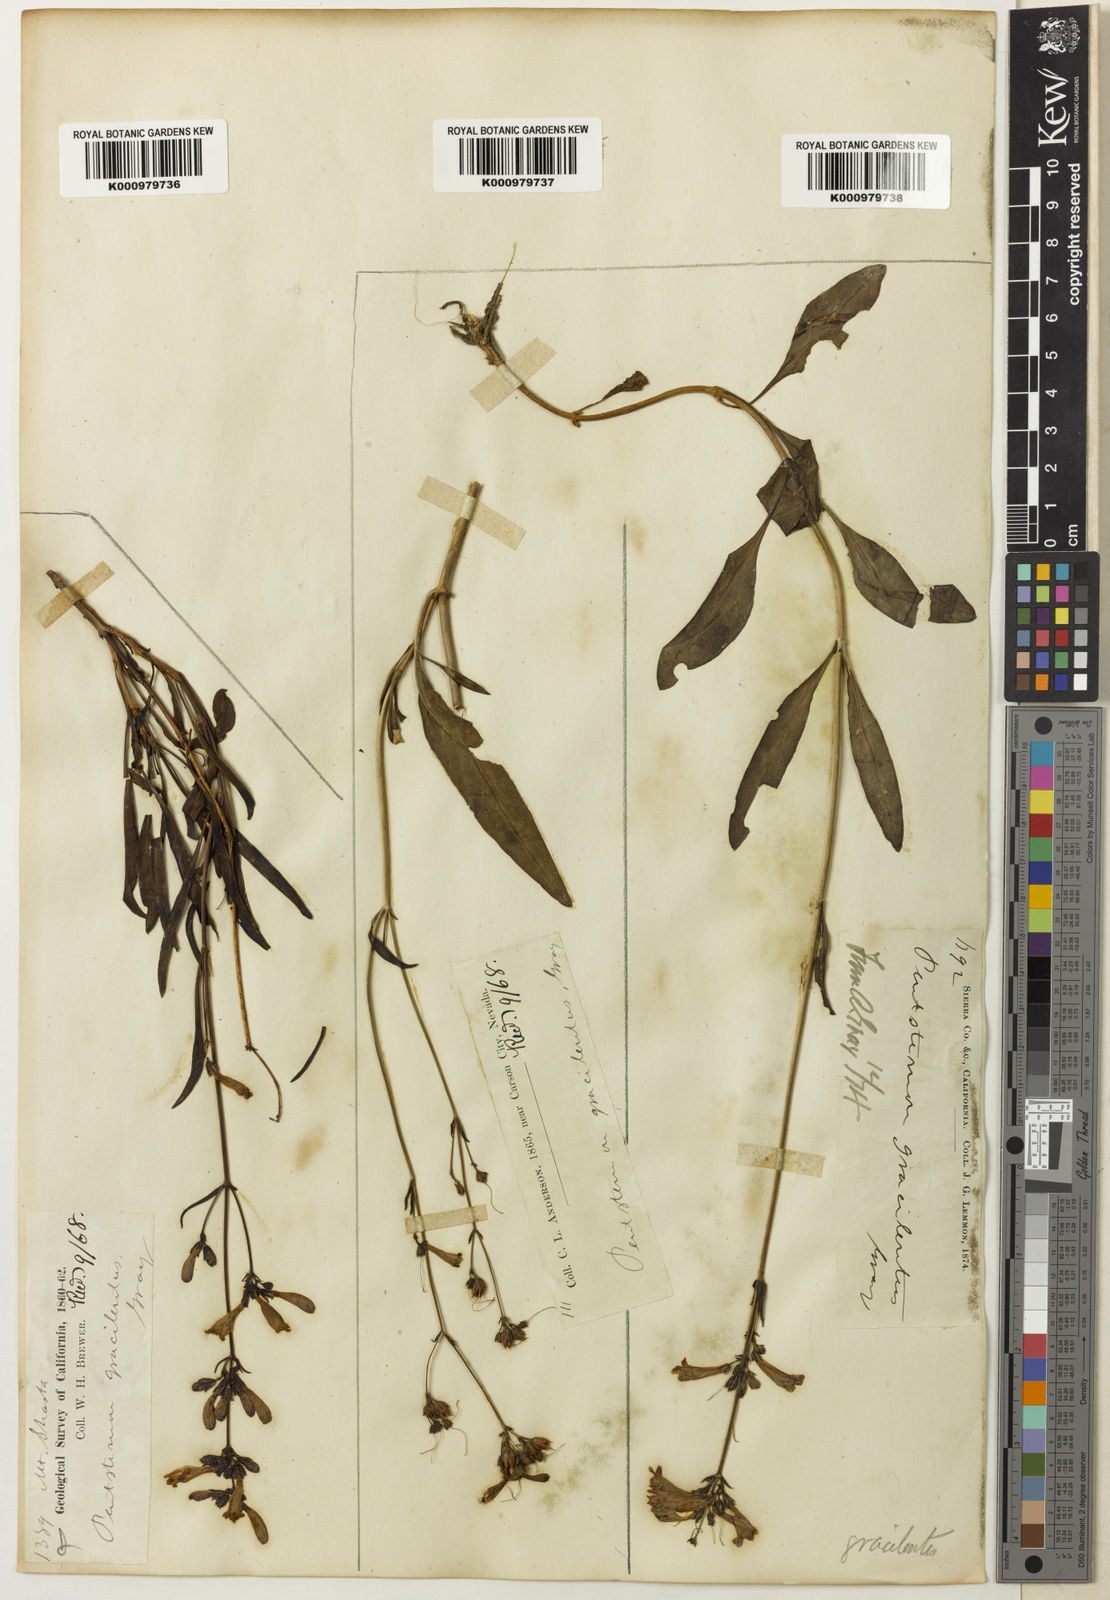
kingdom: Plantae
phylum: Tracheophyta
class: Magnoliopsida
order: Lamiales
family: Plantaginaceae
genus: Penstemon
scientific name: Penstemon gracilentus
